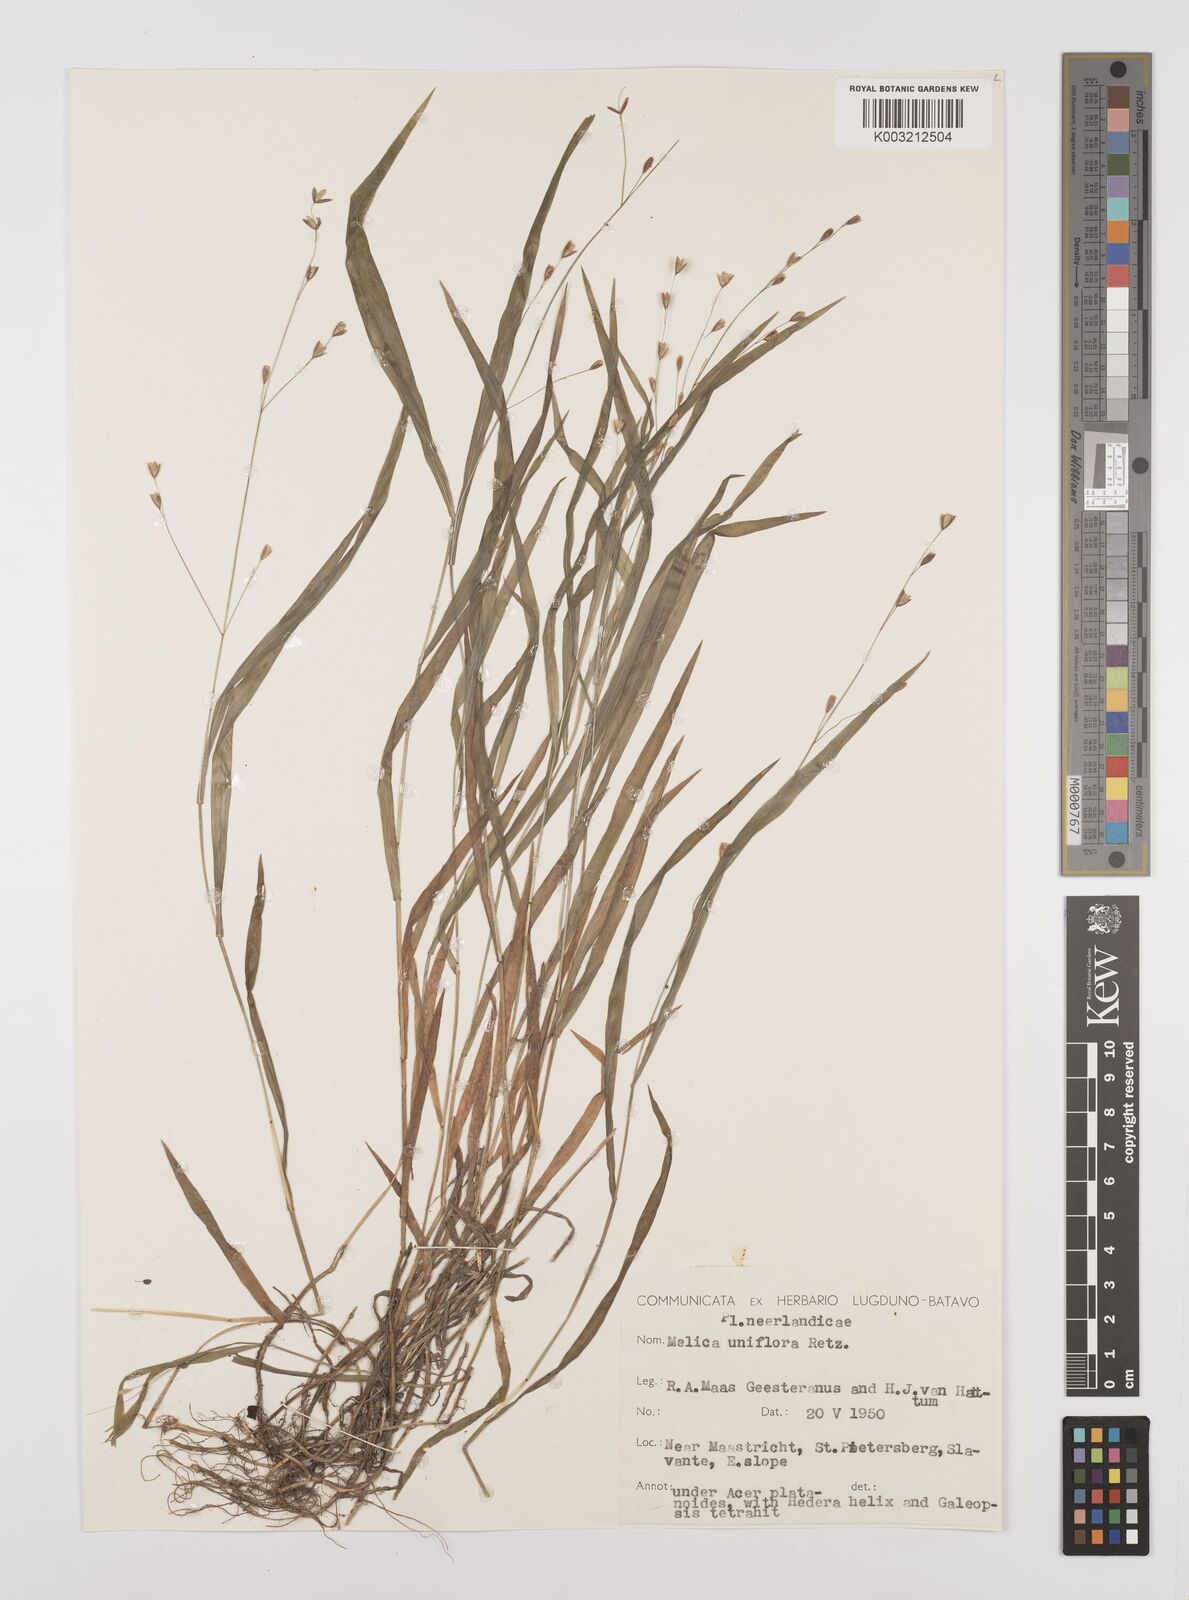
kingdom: Plantae
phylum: Tracheophyta
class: Liliopsida
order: Poales
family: Poaceae
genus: Melica
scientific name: Melica uniflora
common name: Wood melick
